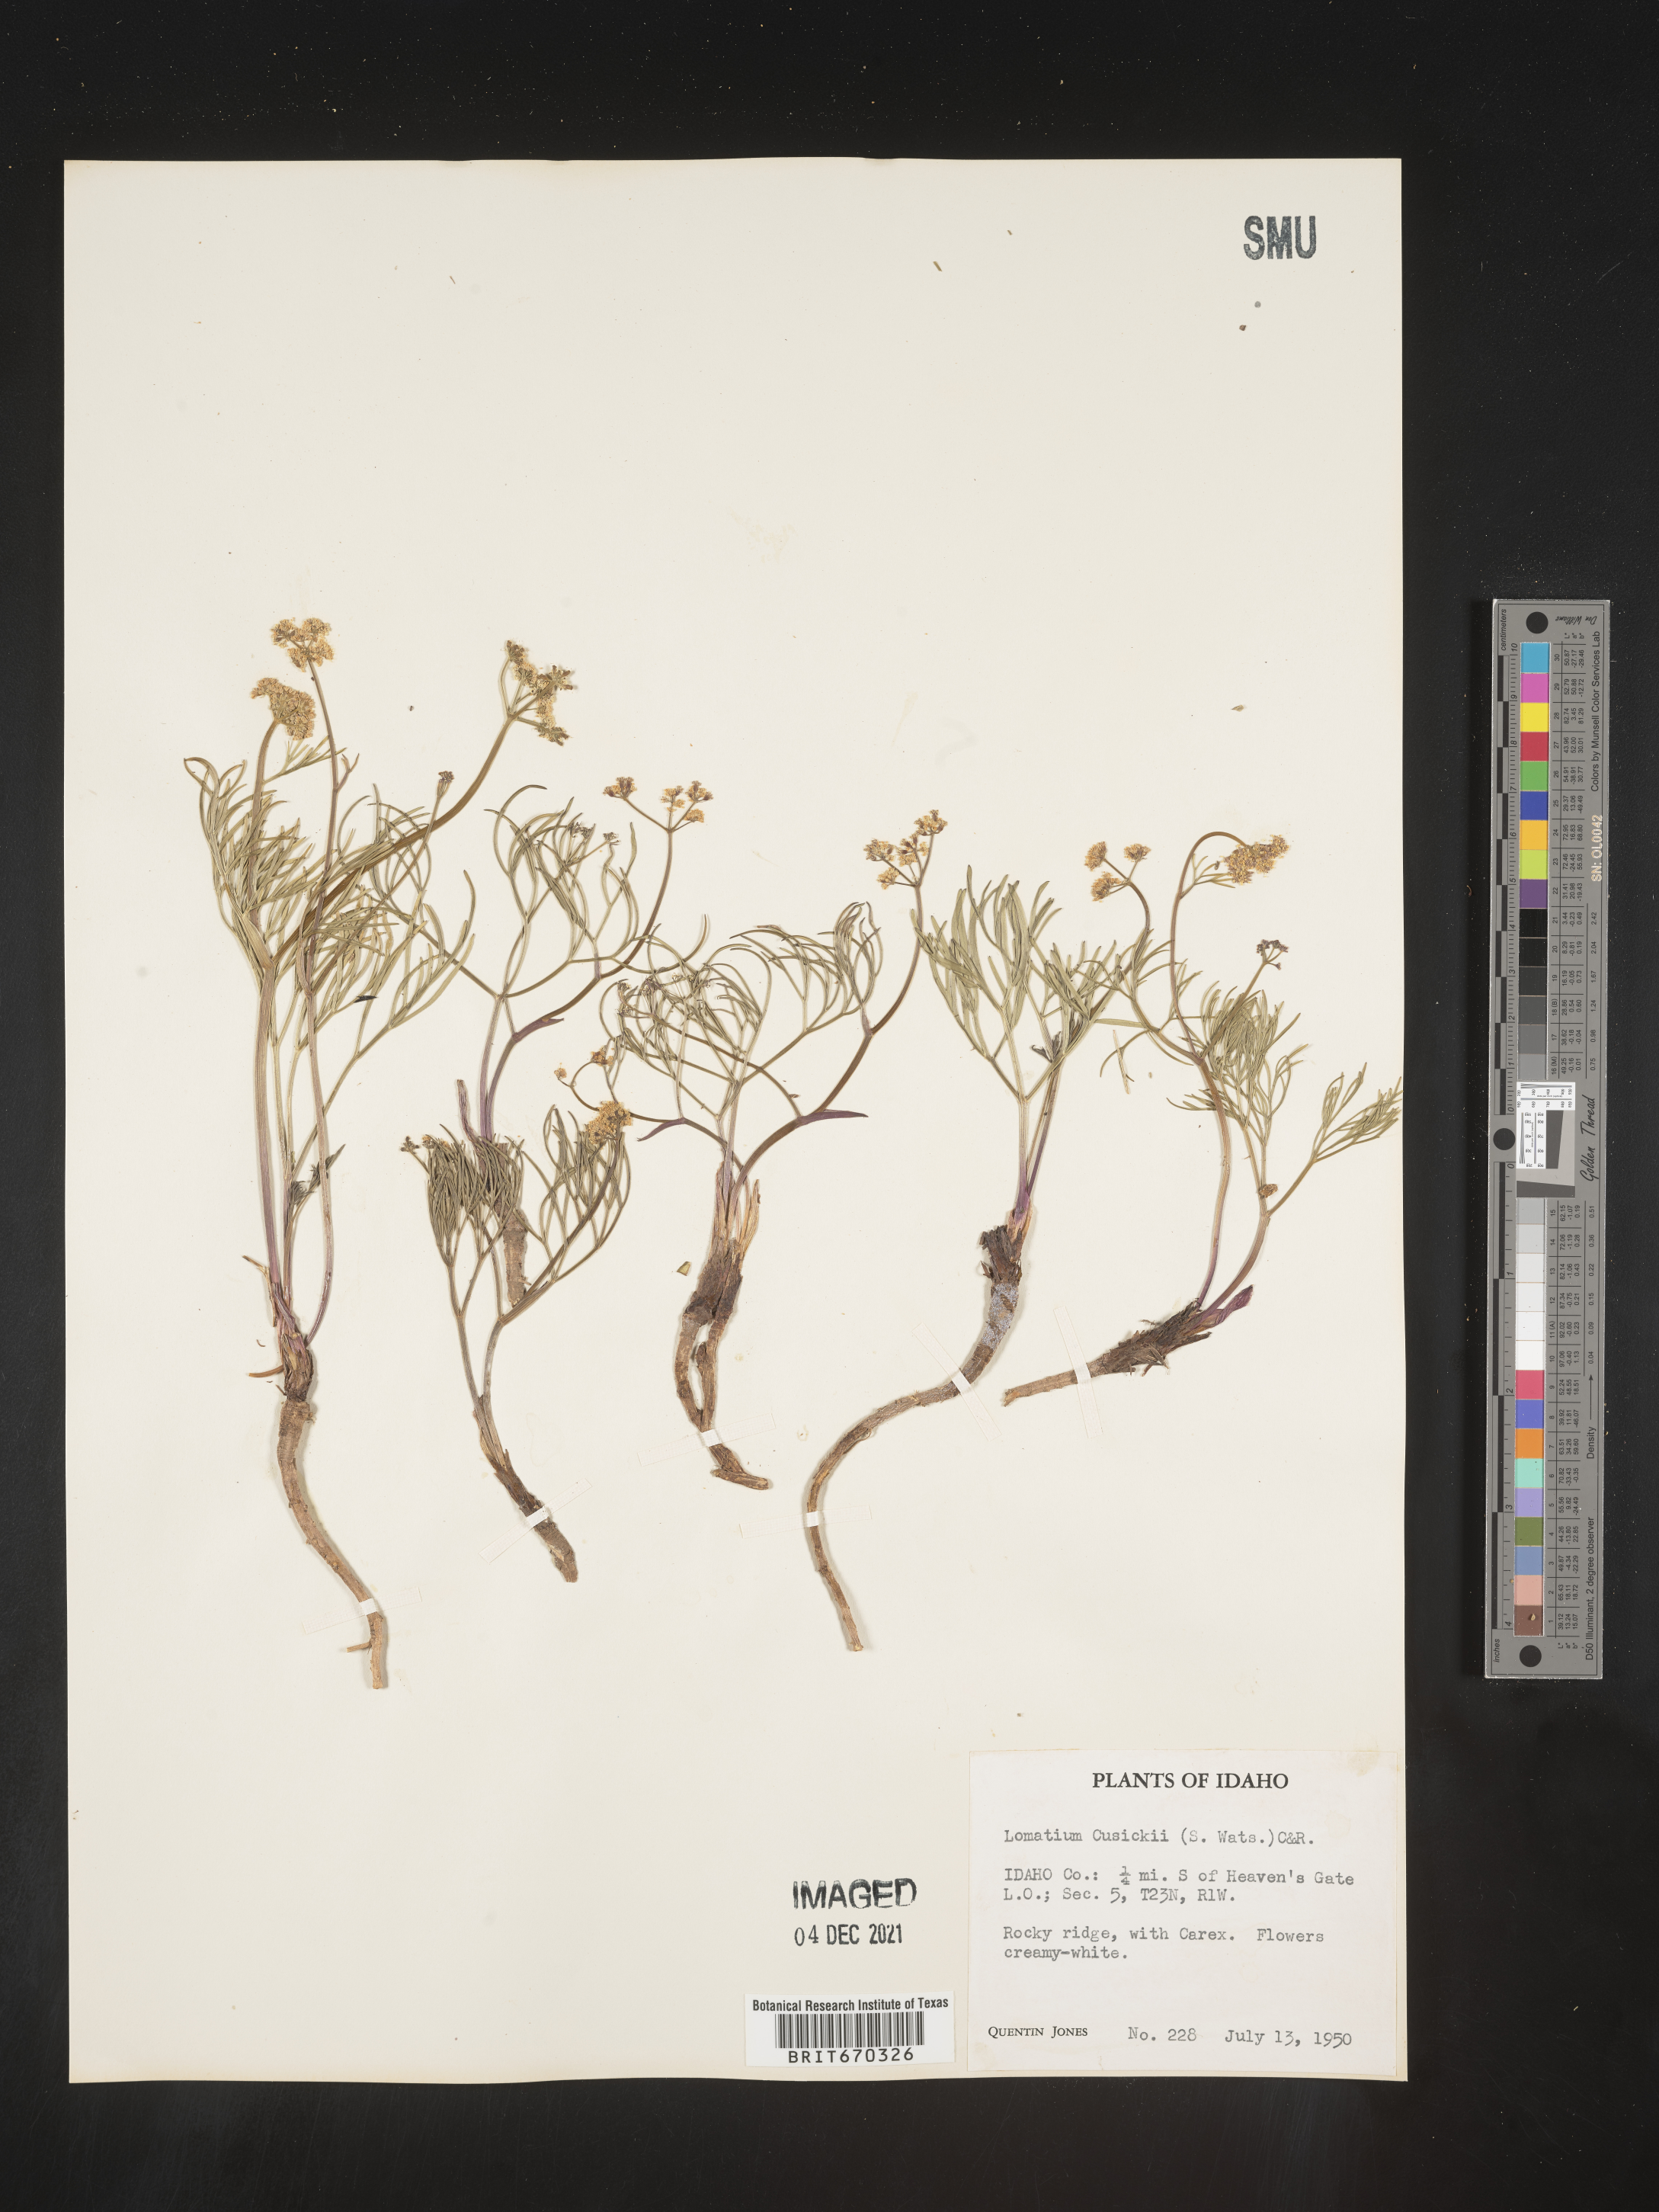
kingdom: Plantae
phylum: Tracheophyta
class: Magnoliopsida
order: Apiales
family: Apiaceae
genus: Lomatium
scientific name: Lomatium
